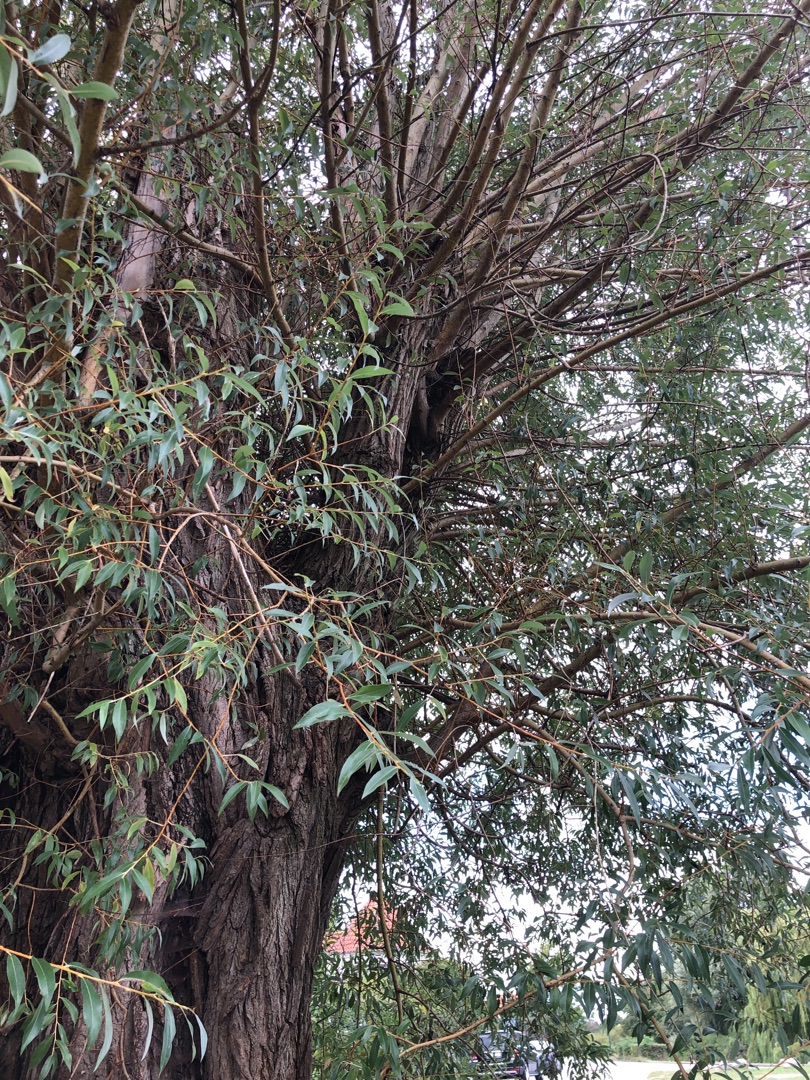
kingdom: Plantae
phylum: Tracheophyta
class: Magnoliopsida
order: Malpighiales
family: Salicaceae
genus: Salix
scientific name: Salix
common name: Pileslægten
